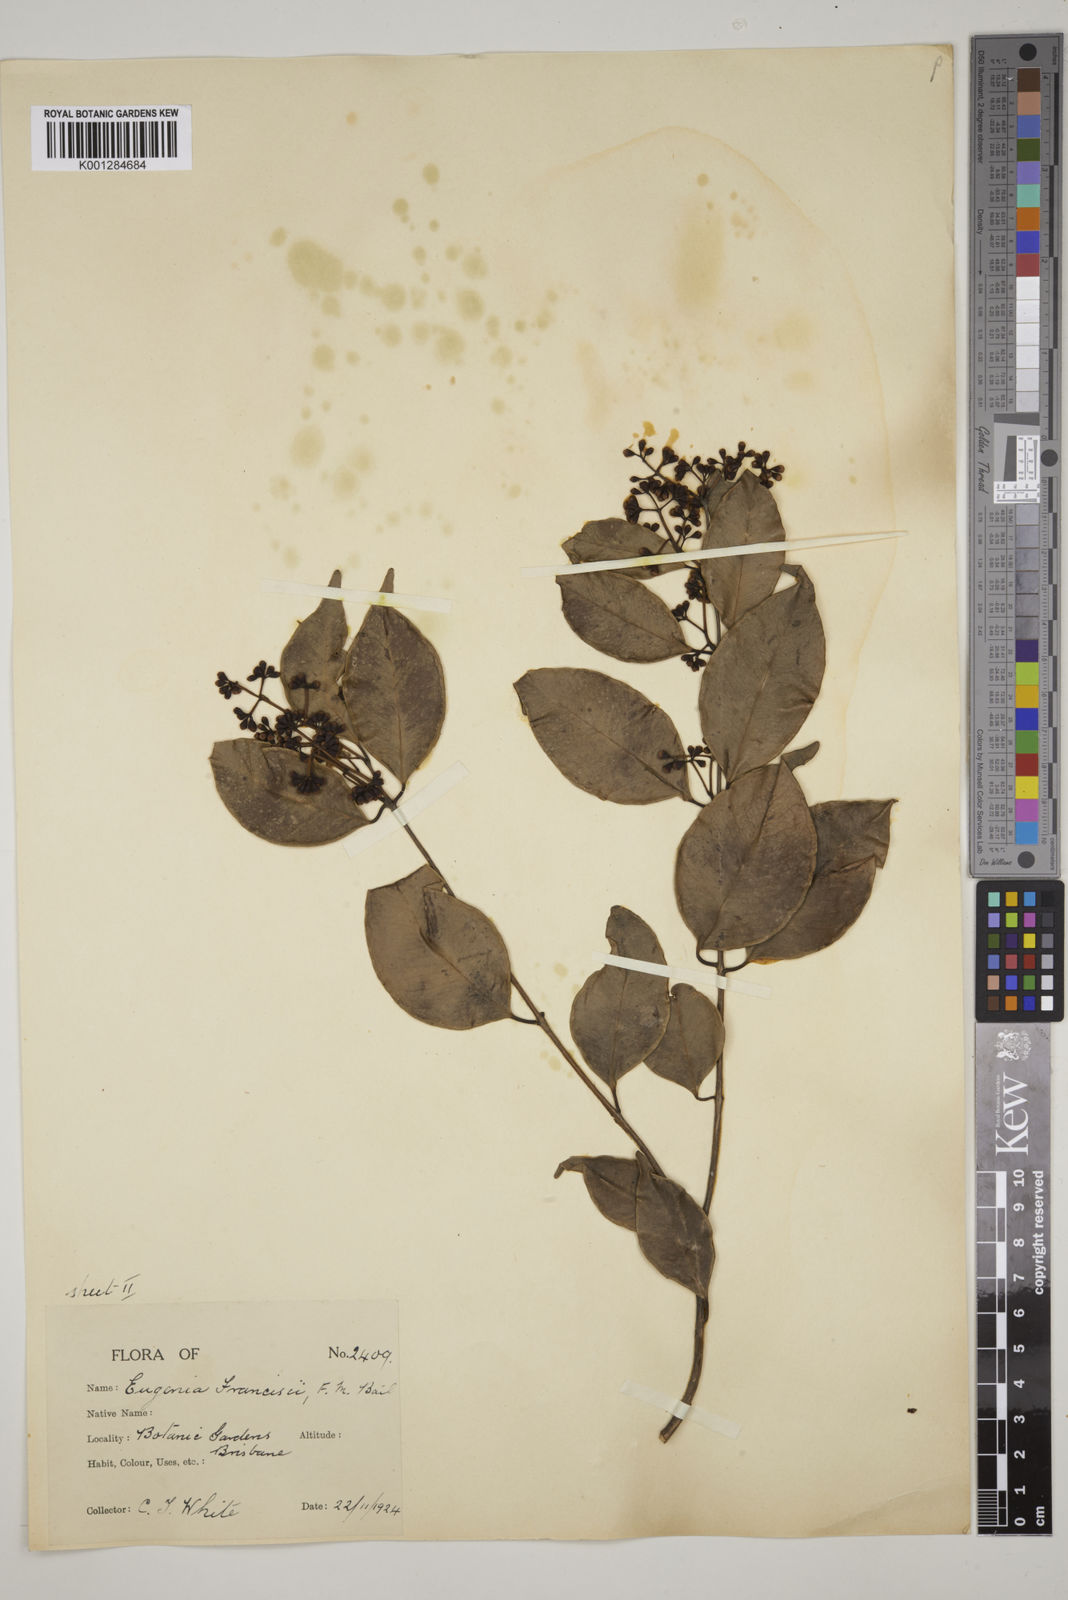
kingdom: Plantae
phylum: Tracheophyta
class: Magnoliopsida
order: Myrtales
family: Myrtaceae
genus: Syzygium
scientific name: Syzygium francisii
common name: Giant water-gum
